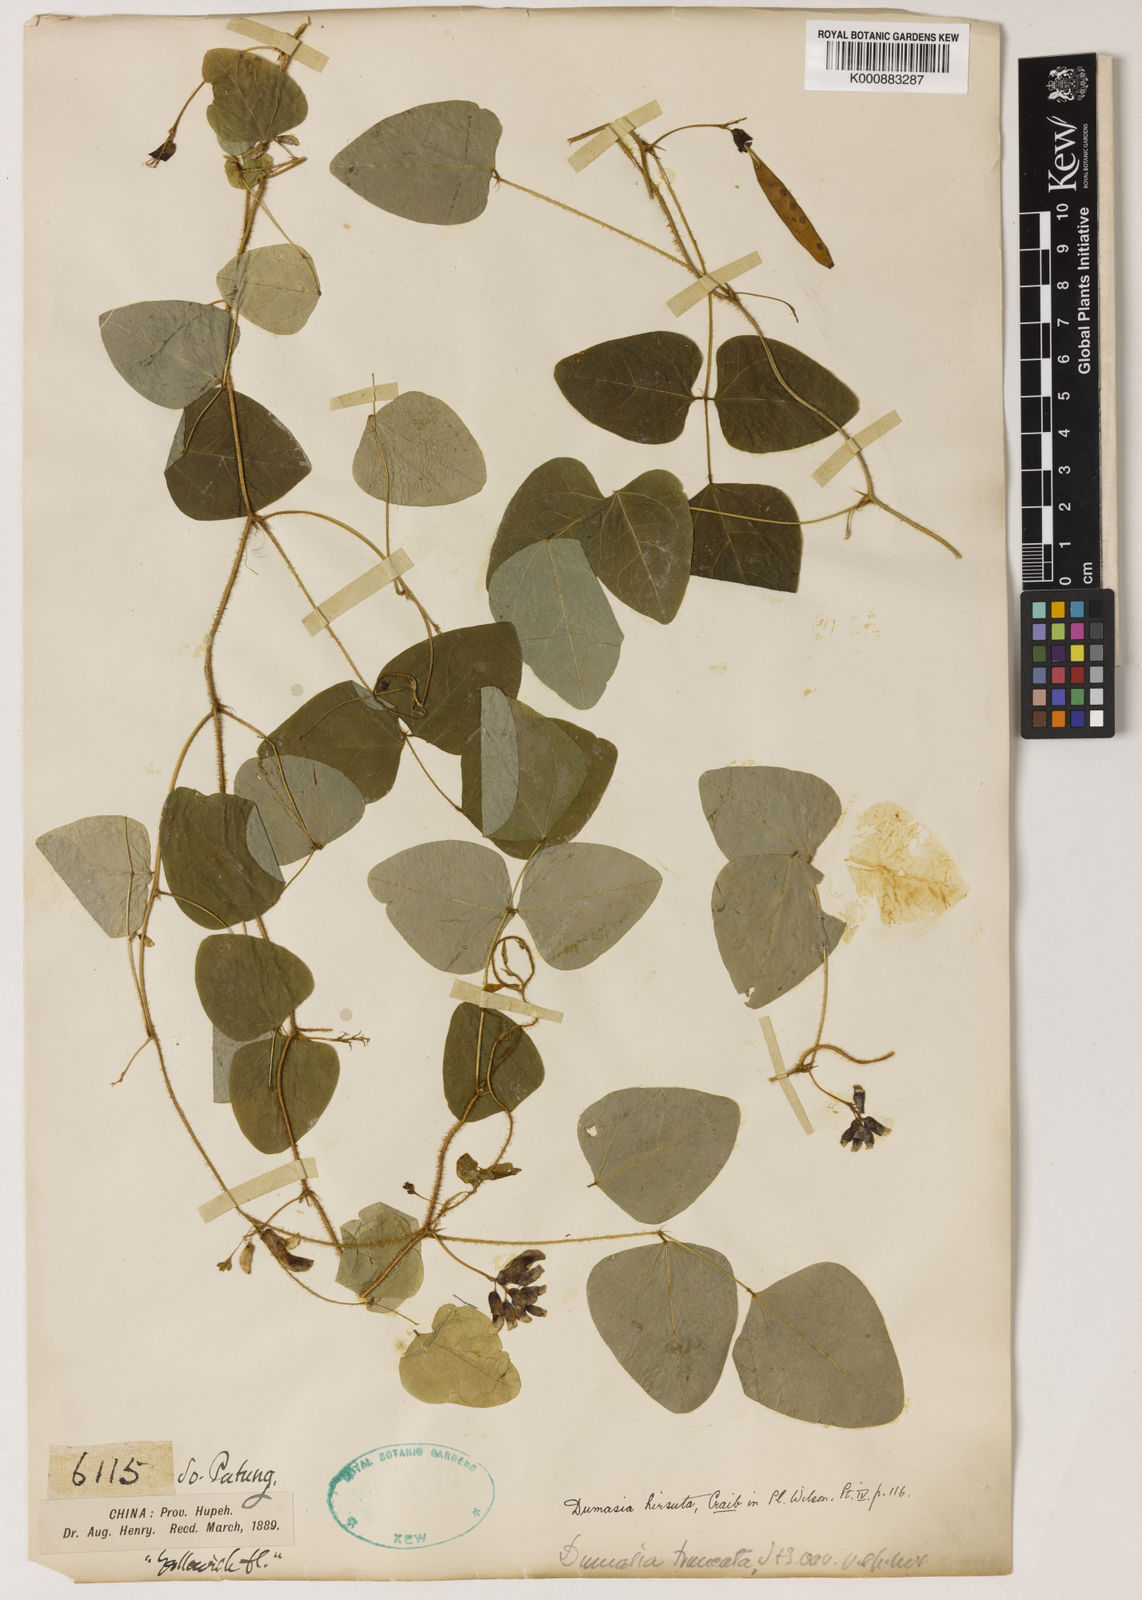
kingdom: Plantae
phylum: Tracheophyta
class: Magnoliopsida
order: Fabales
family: Fabaceae
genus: Dumasia
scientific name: Dumasia hirsuta
